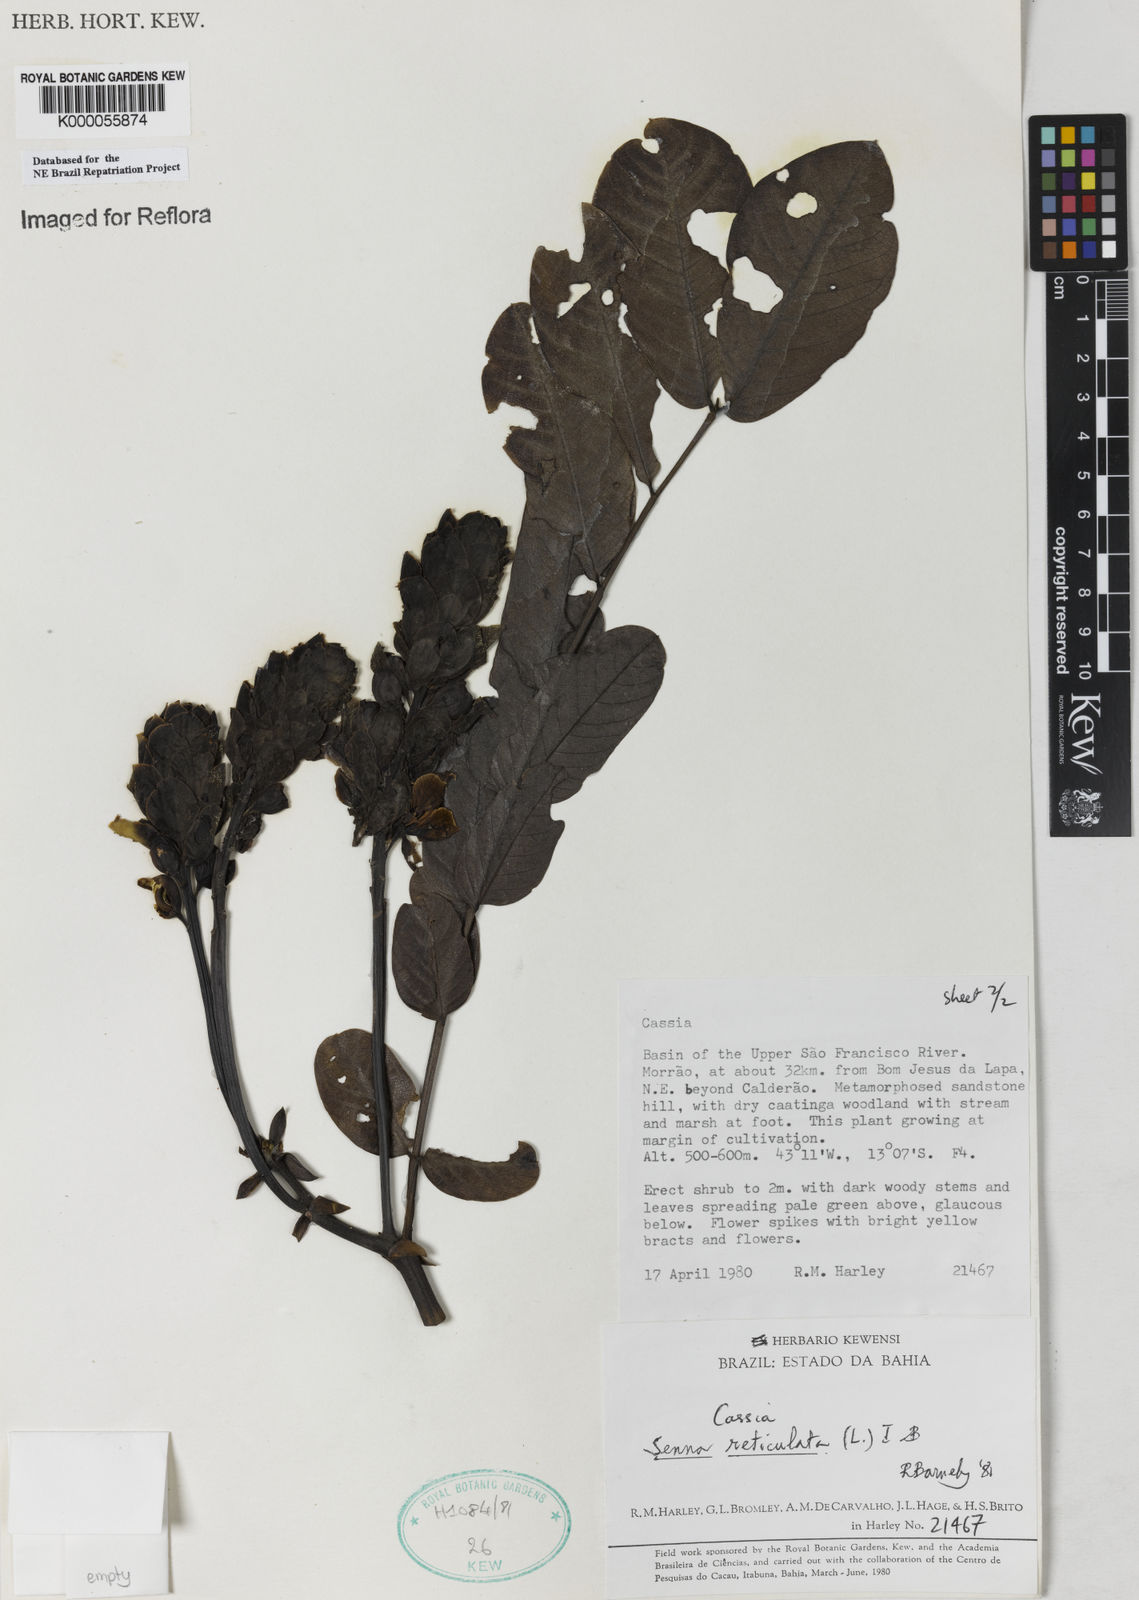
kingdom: Plantae
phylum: Tracheophyta
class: Magnoliopsida
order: Fabales
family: Fabaceae
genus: Senna
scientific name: Senna reticulata
